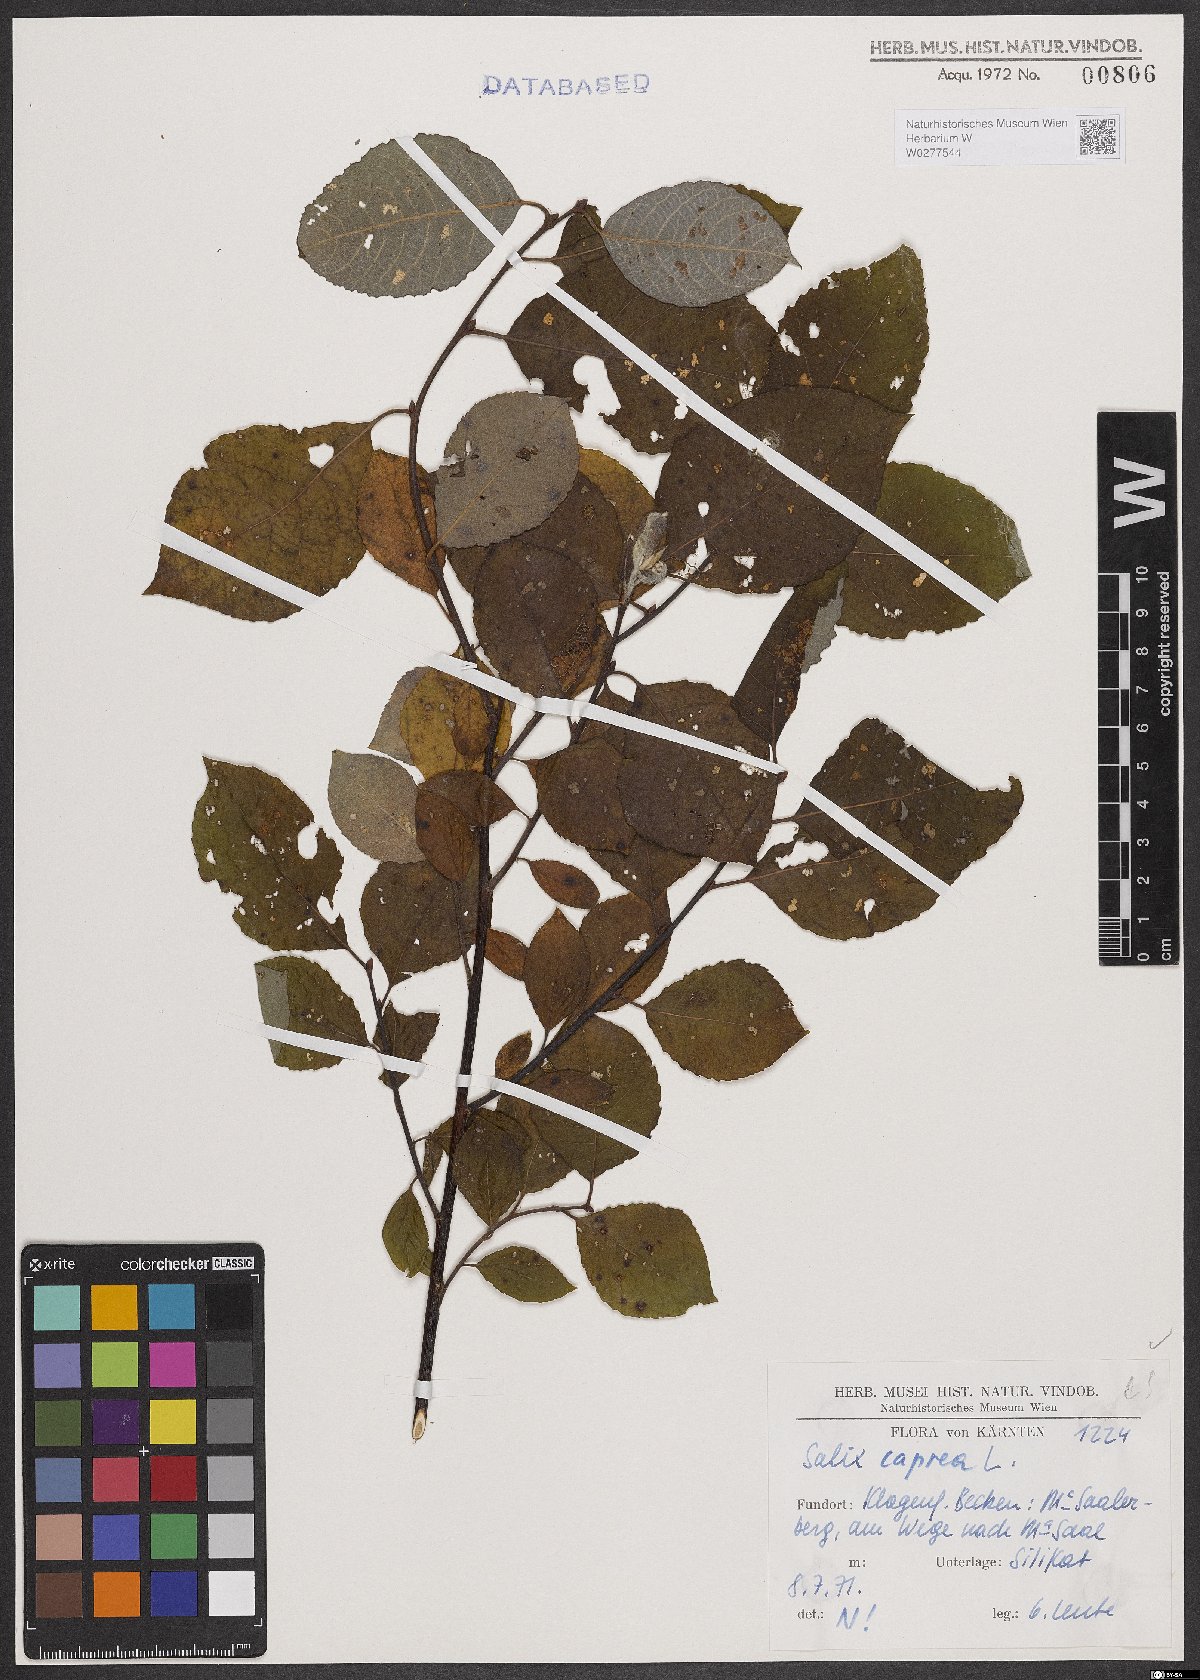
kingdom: Plantae
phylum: Tracheophyta
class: Magnoliopsida
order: Malpighiales
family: Salicaceae
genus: Salix
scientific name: Salix caprea
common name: Goat willow
